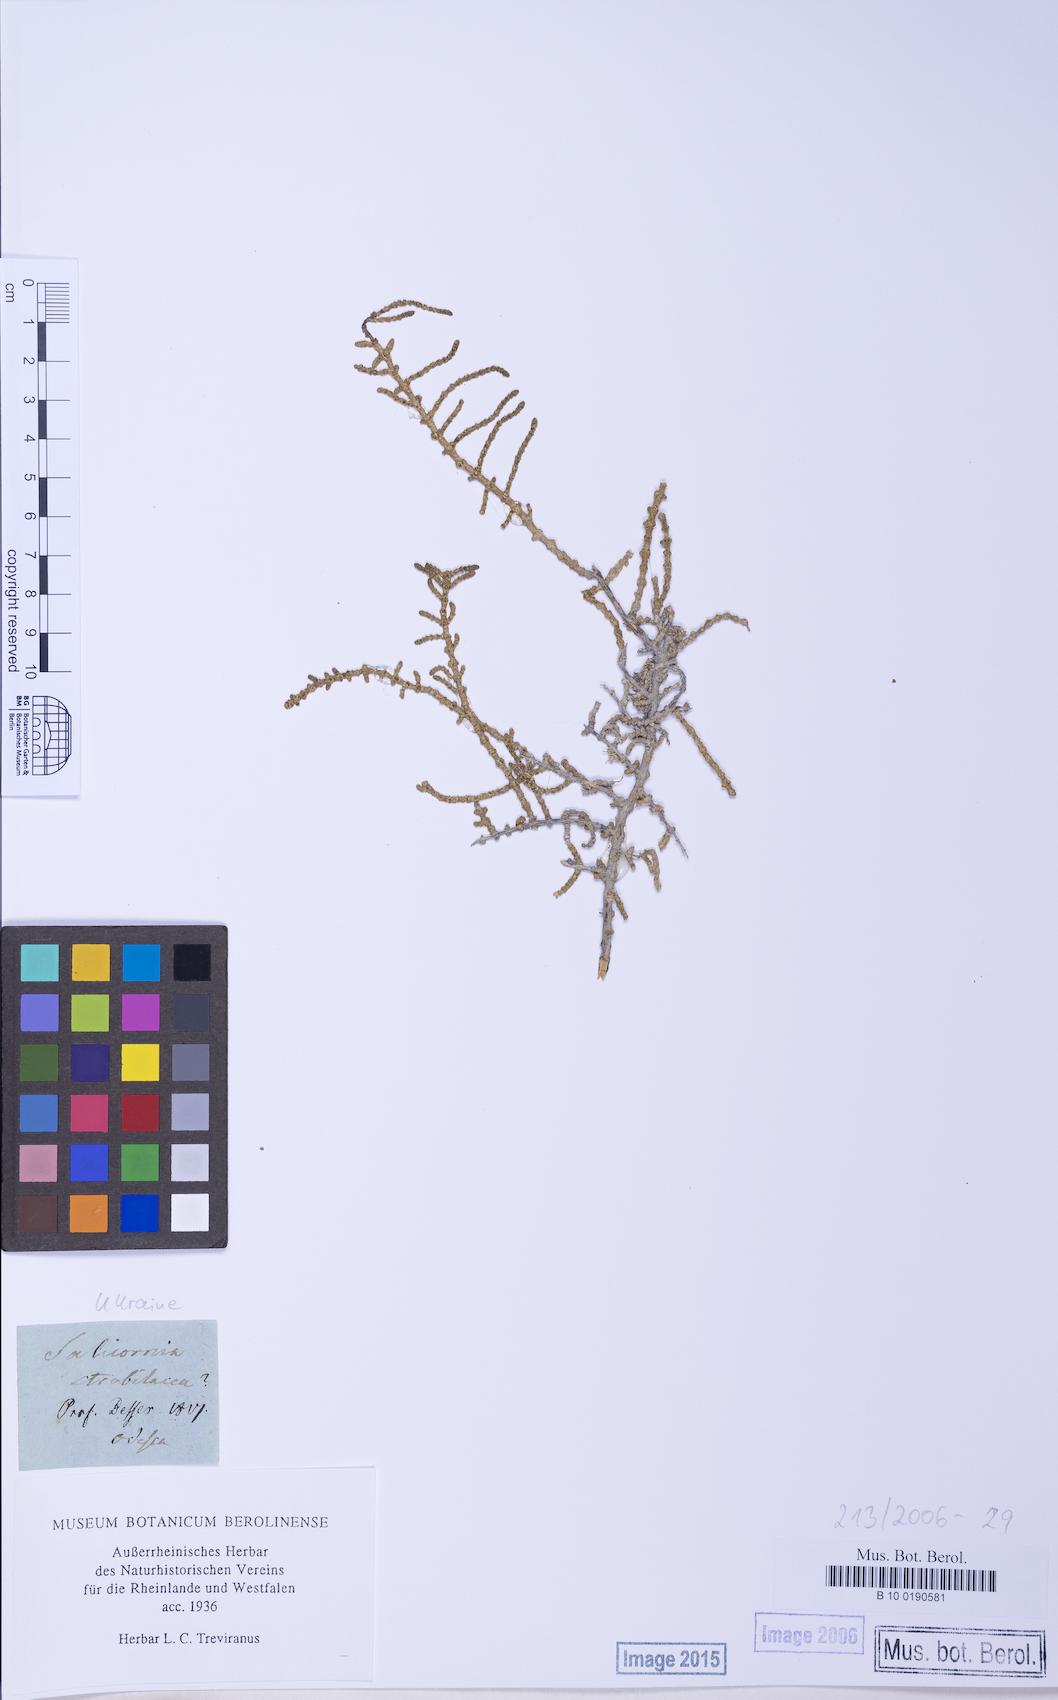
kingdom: Plantae
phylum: Tracheophyta
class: Magnoliopsida
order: Caryophyllales
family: Amaranthaceae
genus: Halocnemum
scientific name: Halocnemum strobilaceum
